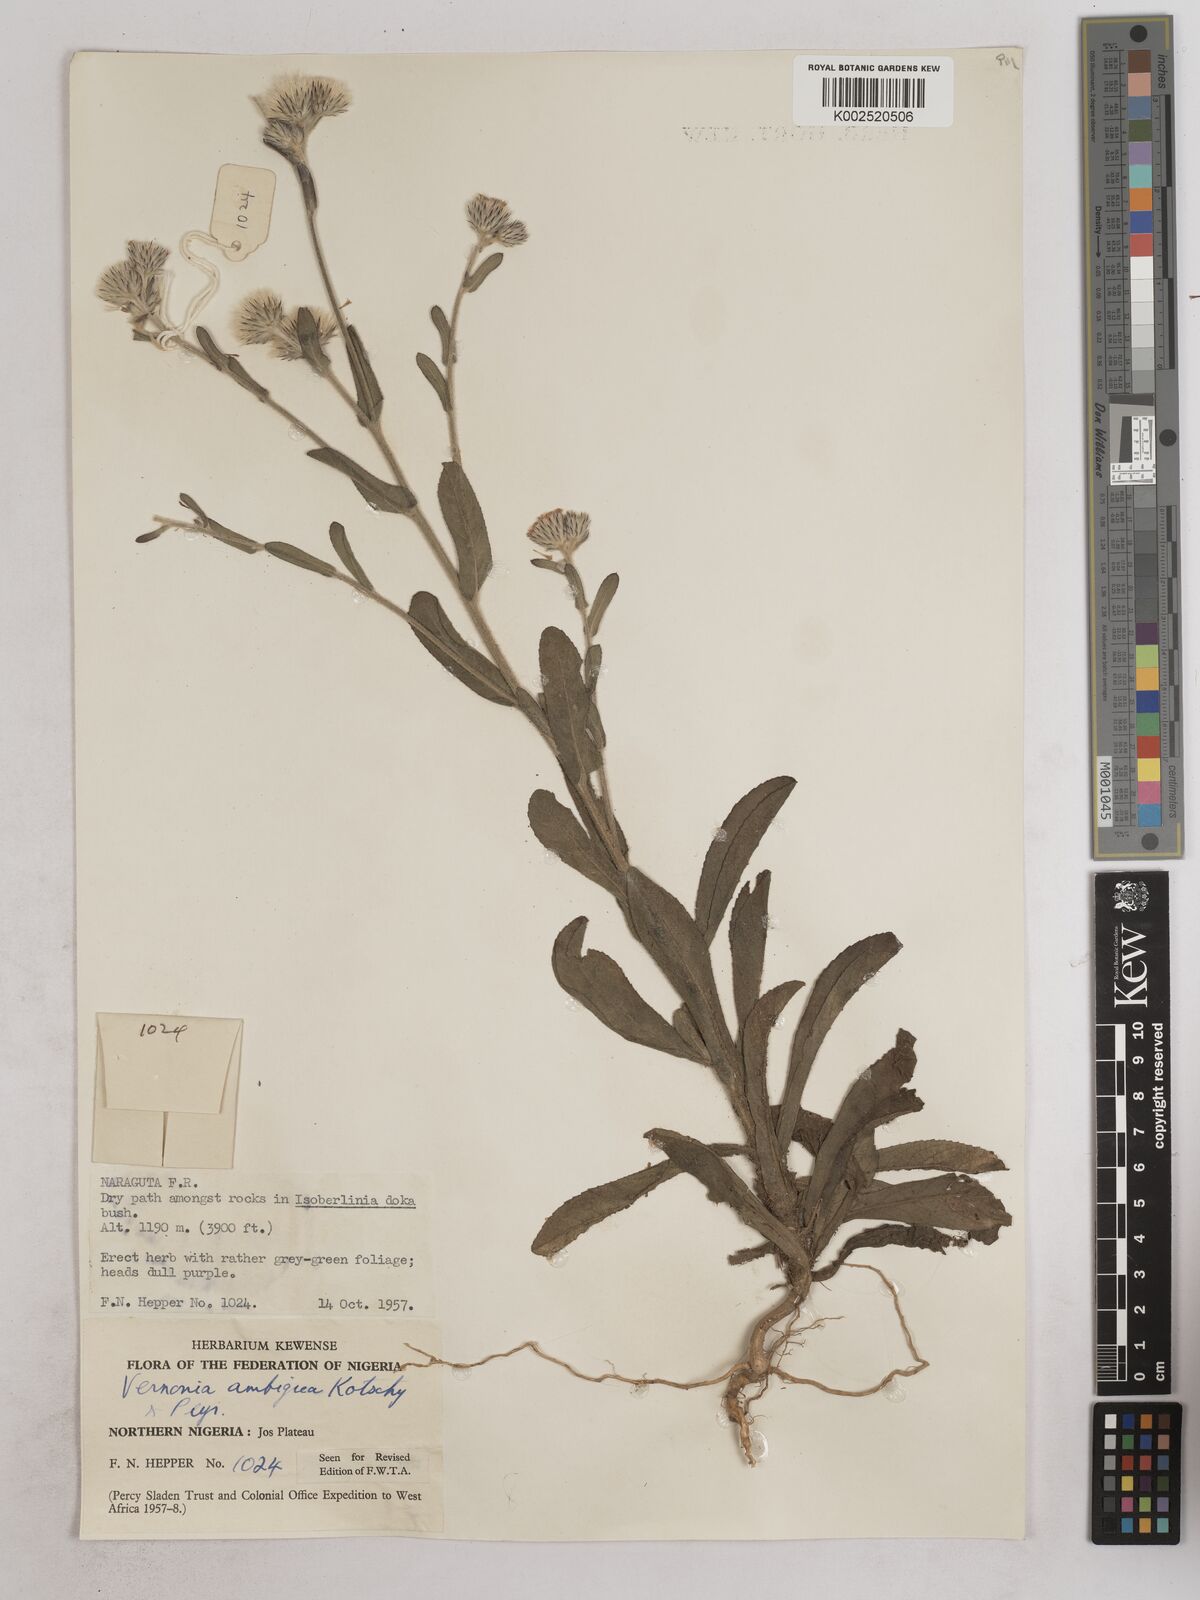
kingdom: Plantae
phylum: Tracheophyta
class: Magnoliopsida
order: Asterales
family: Asteraceae
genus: Vernoniastrum
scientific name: Vernoniastrum ambiguum
